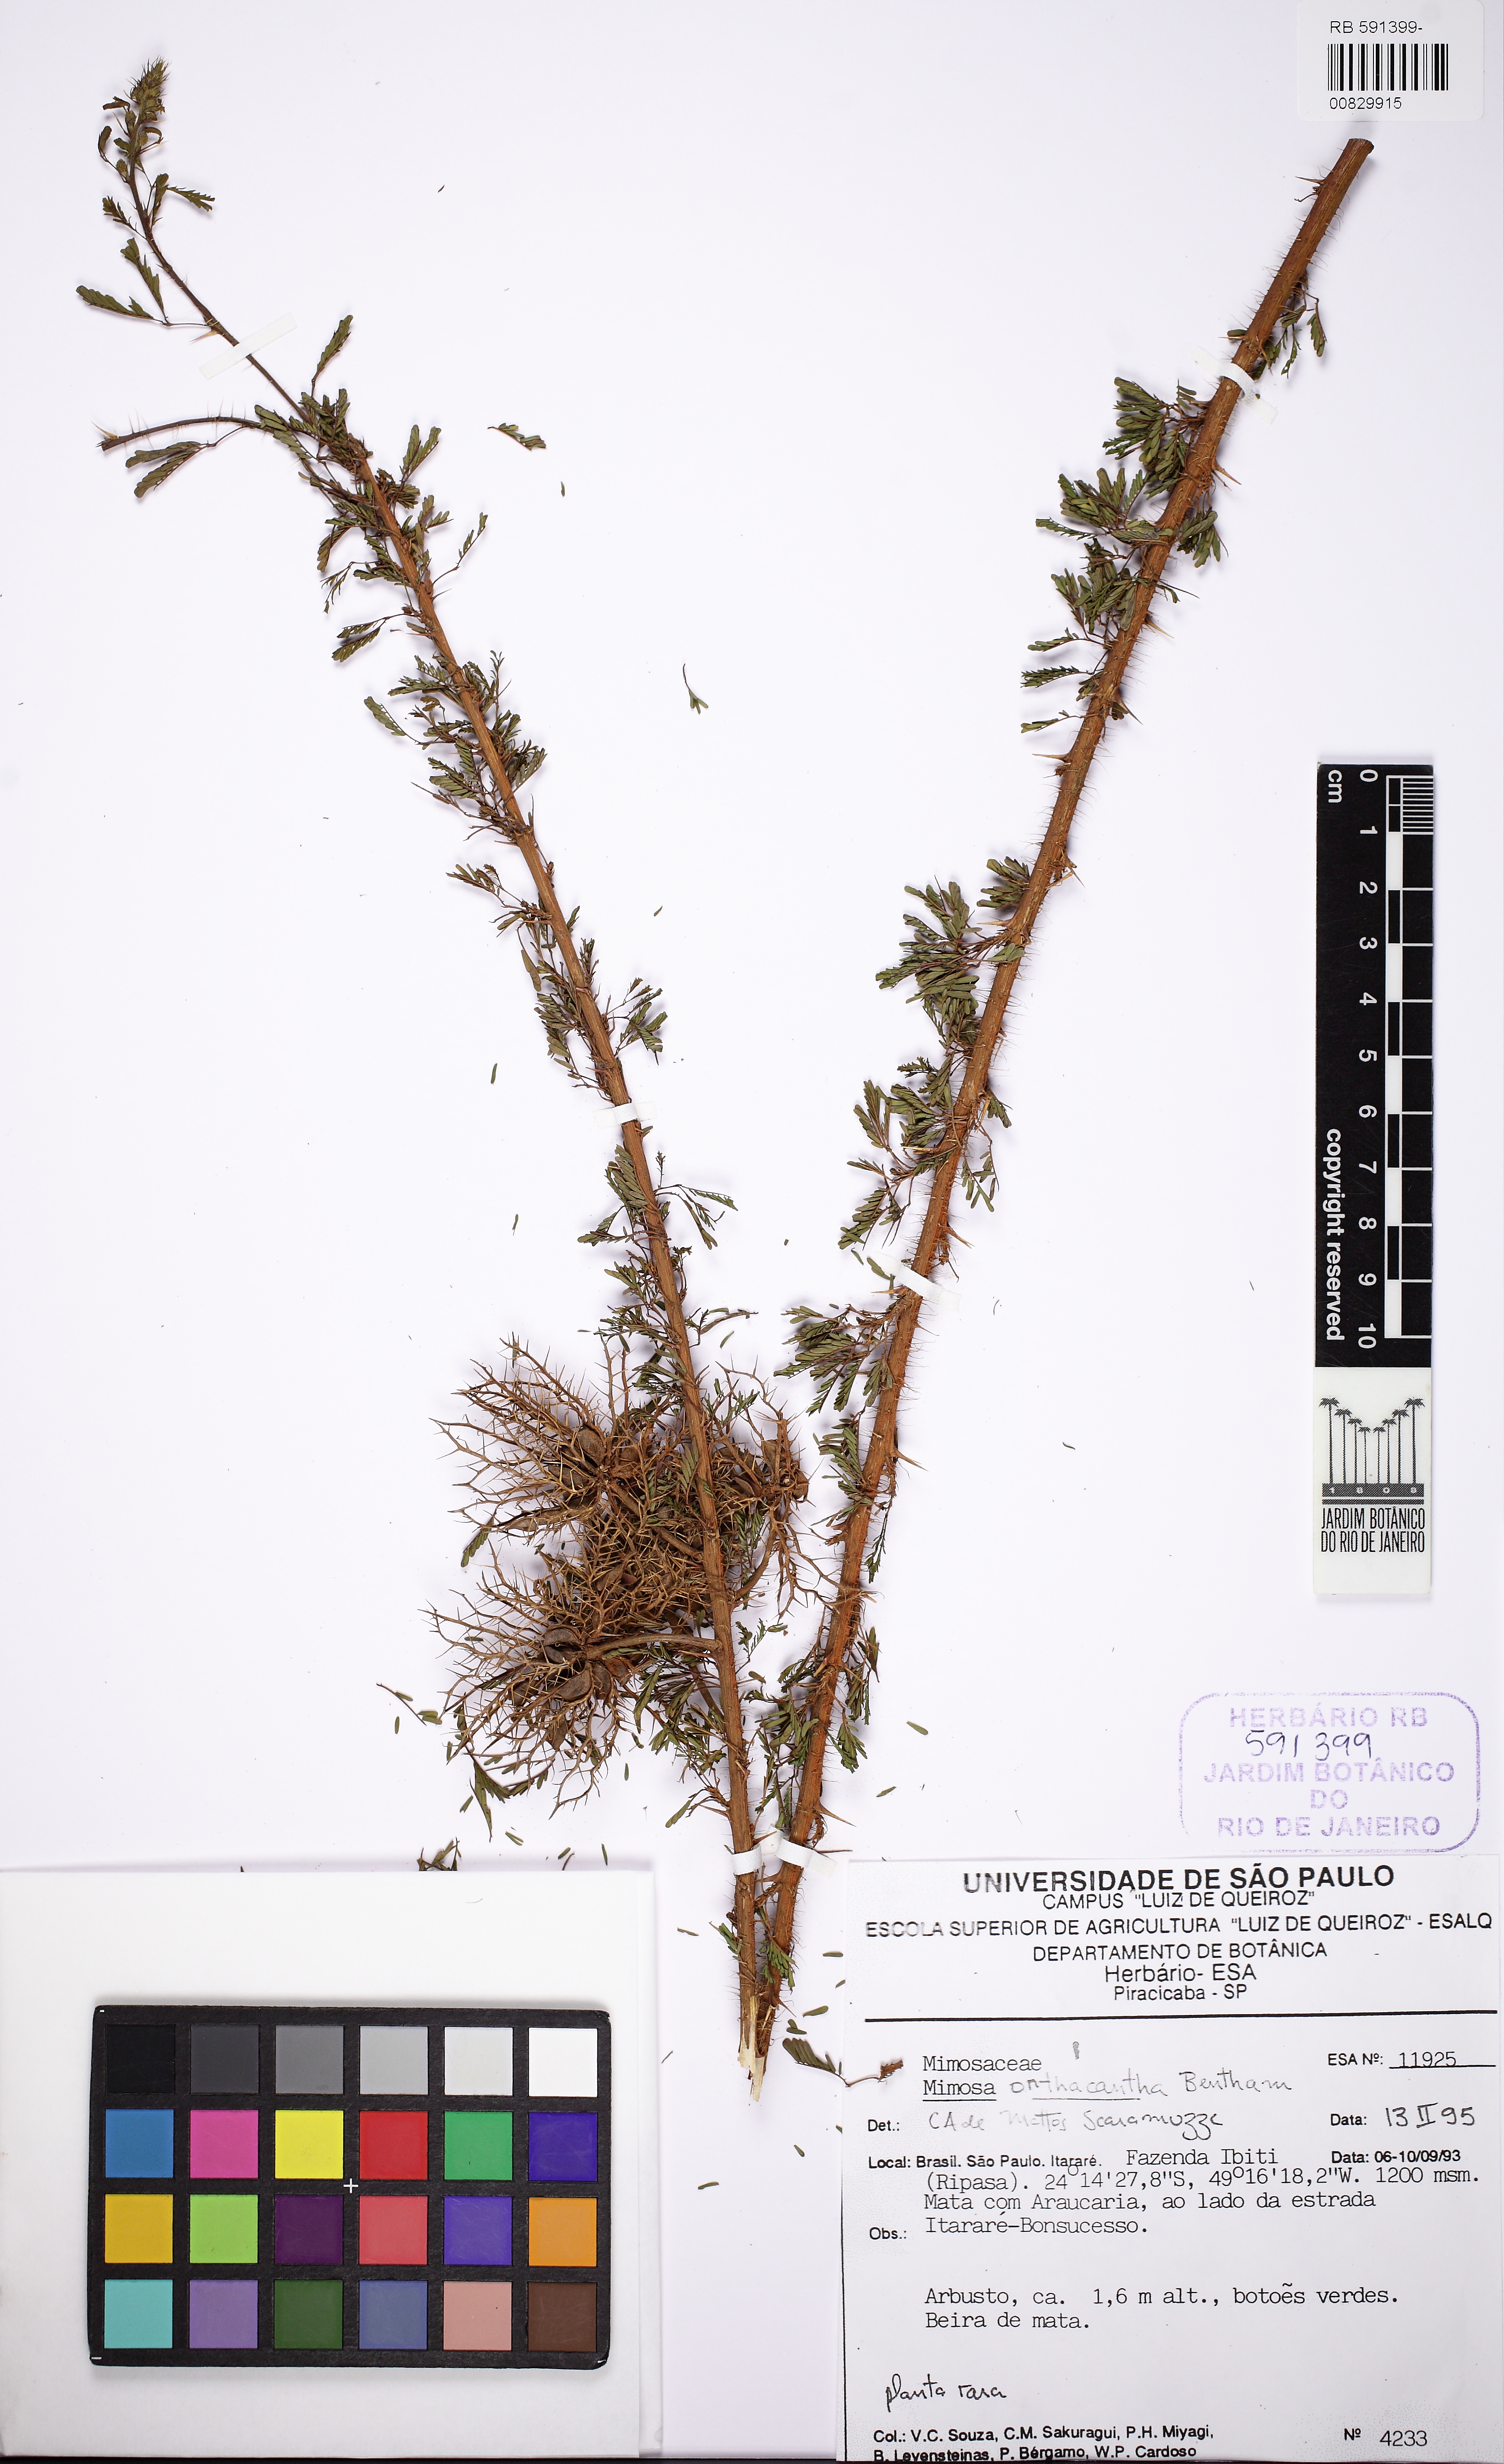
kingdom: Plantae
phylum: Tracheophyta
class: Magnoliopsida
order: Fabales
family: Fabaceae
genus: Mimosa
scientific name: Mimosa orthacantha
